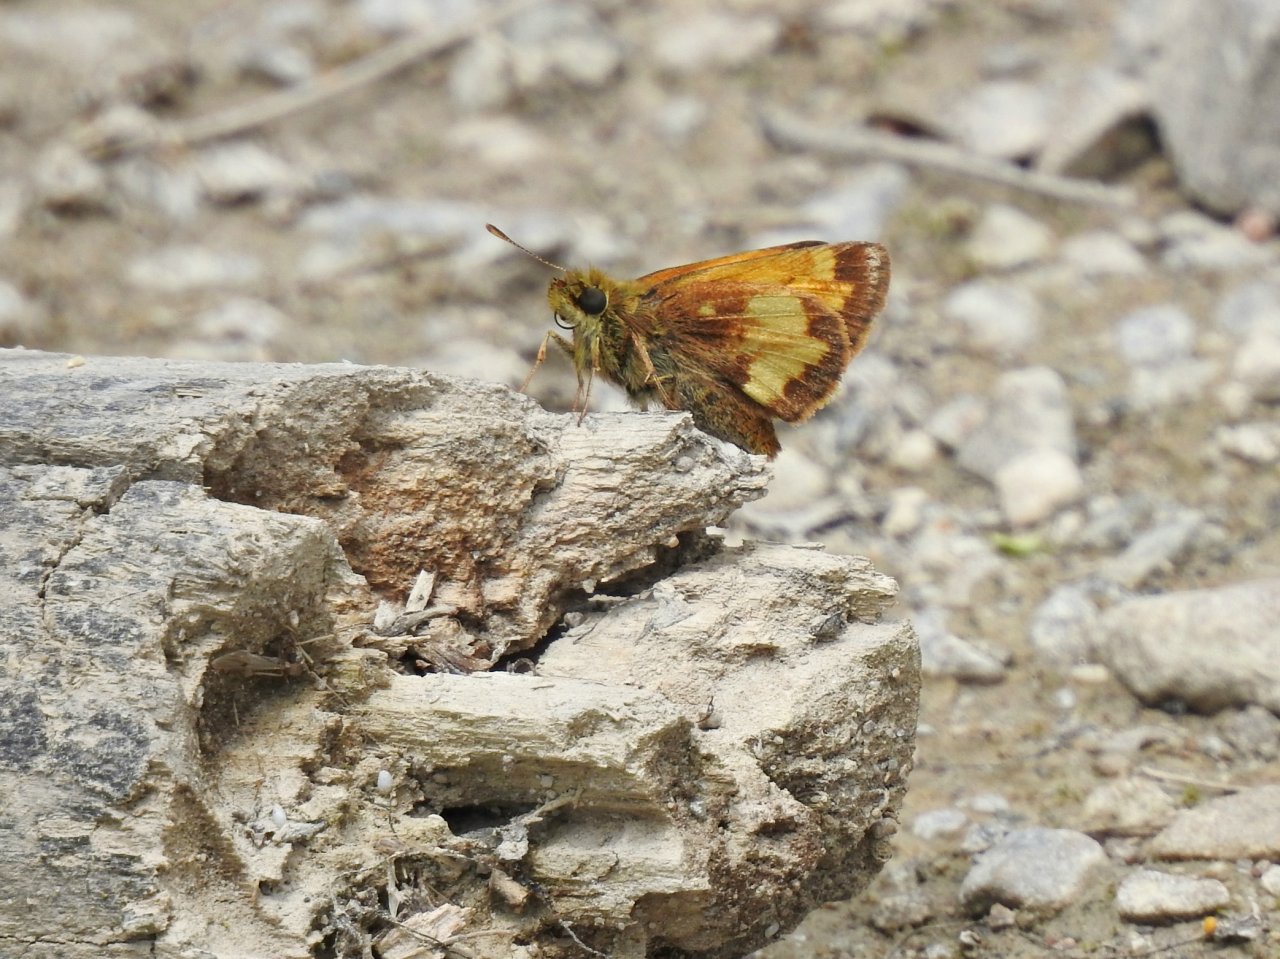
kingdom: Animalia
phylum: Arthropoda
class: Insecta
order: Lepidoptera
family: Hesperiidae
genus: Lon
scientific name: Lon hobomok
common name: Hobomok Skipper
